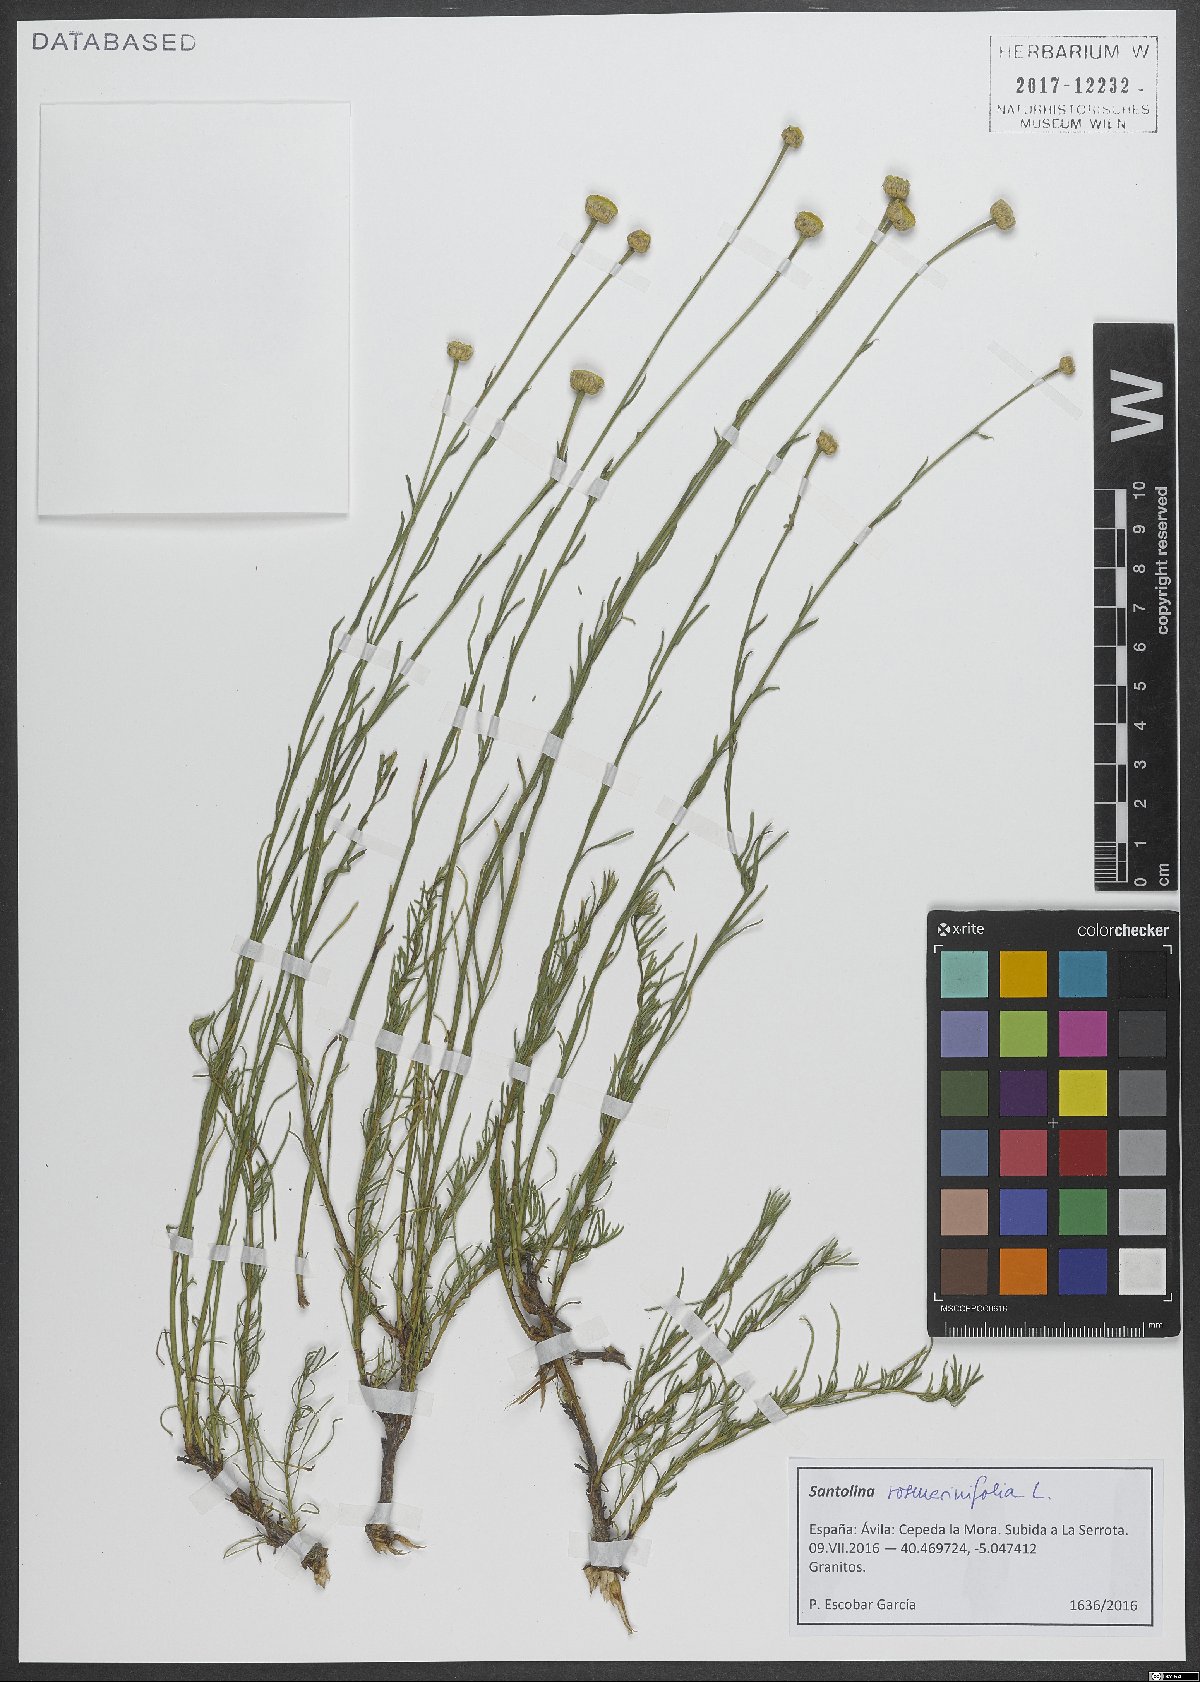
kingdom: Plantae
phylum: Tracheophyta
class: Magnoliopsida
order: Asterales
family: Asteraceae
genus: Santolina
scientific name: Santolina rosmarinifolia
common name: Holy-flax
